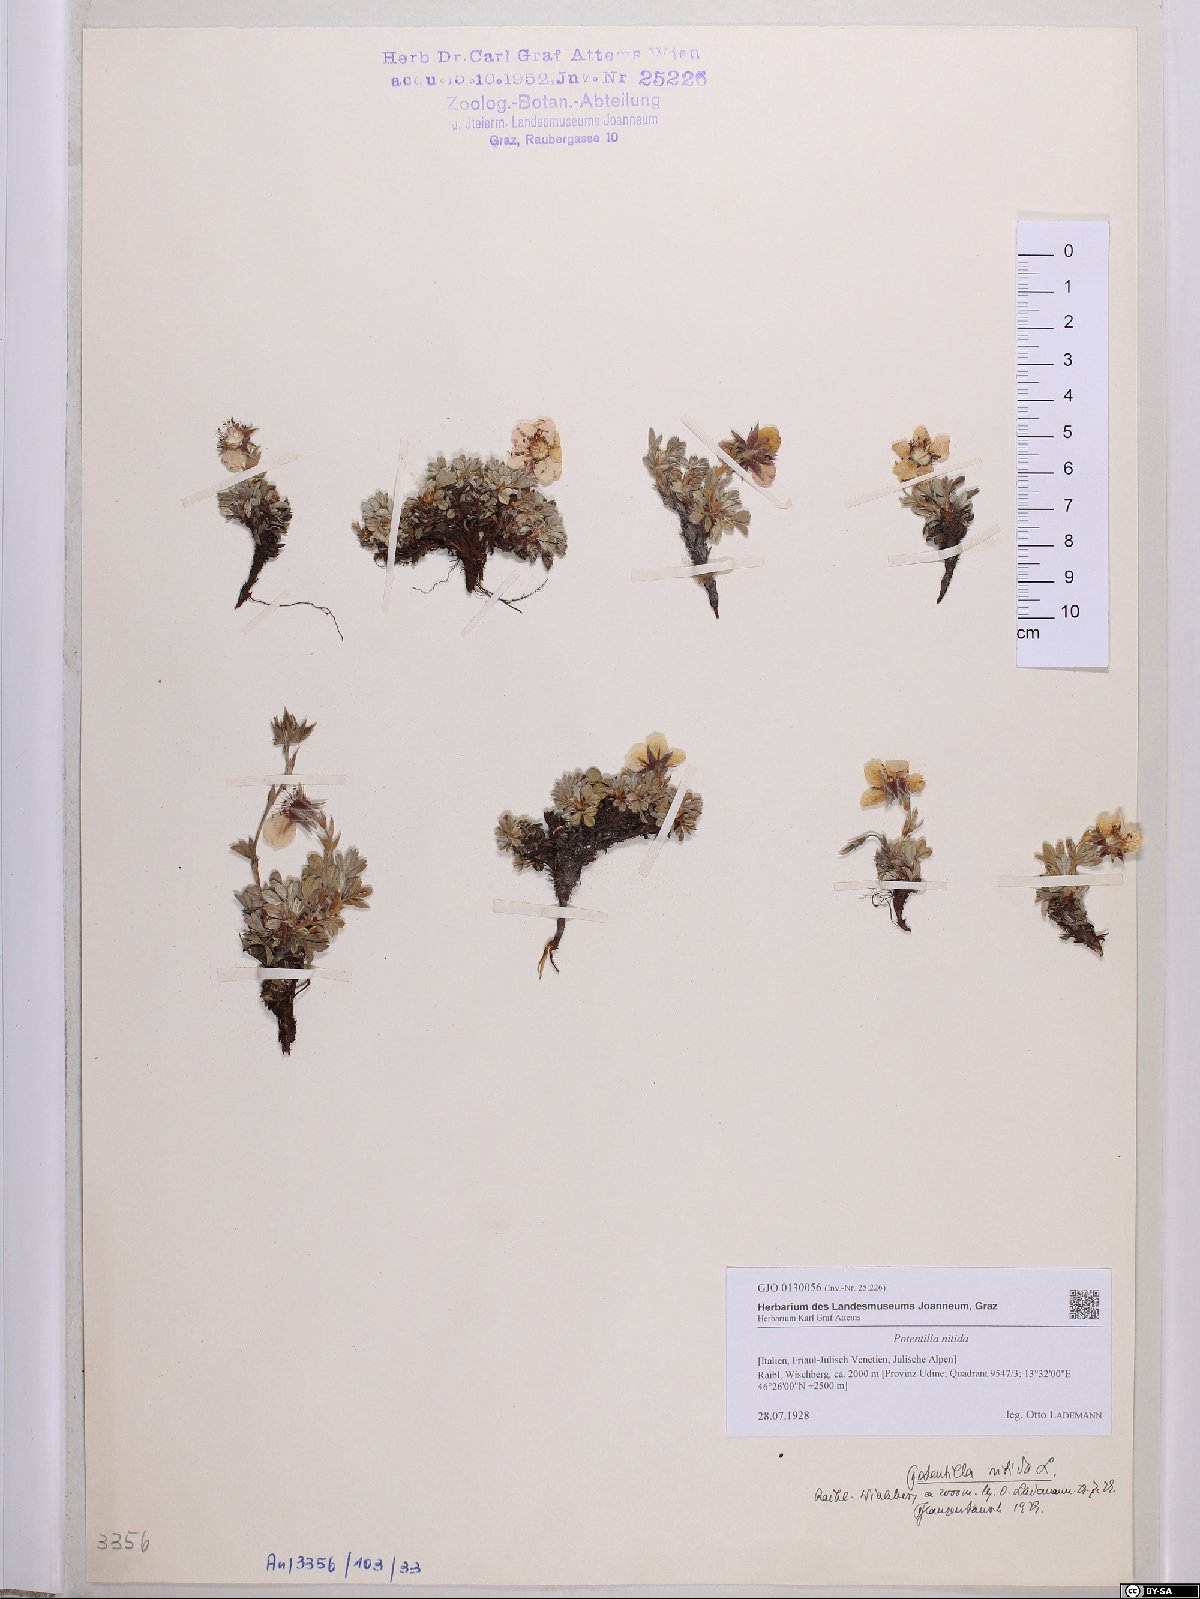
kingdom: Plantae
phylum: Tracheophyta
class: Magnoliopsida
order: Rosales
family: Rosaceae
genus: Potentilla
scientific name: Potentilla nitida
